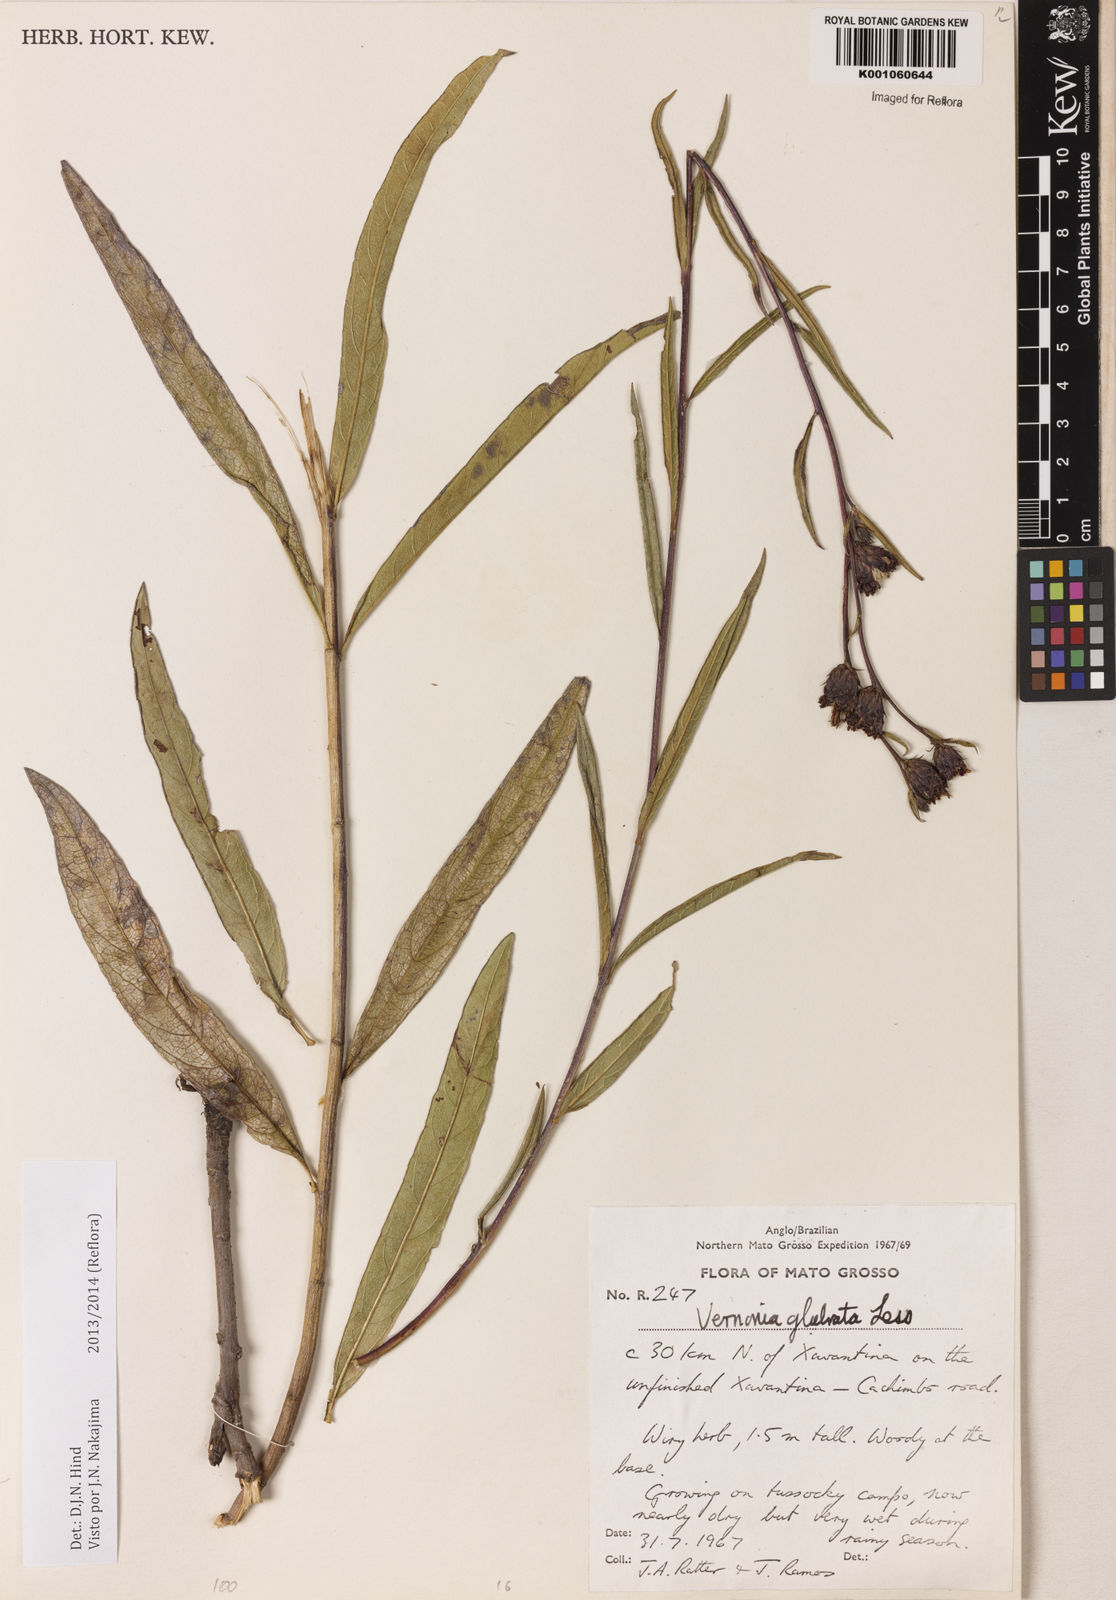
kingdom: Plantae
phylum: Tracheophyta
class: Magnoliopsida
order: Asterales
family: Asteraceae
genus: Lessingianthus
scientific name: Lessingianthus glabratus
